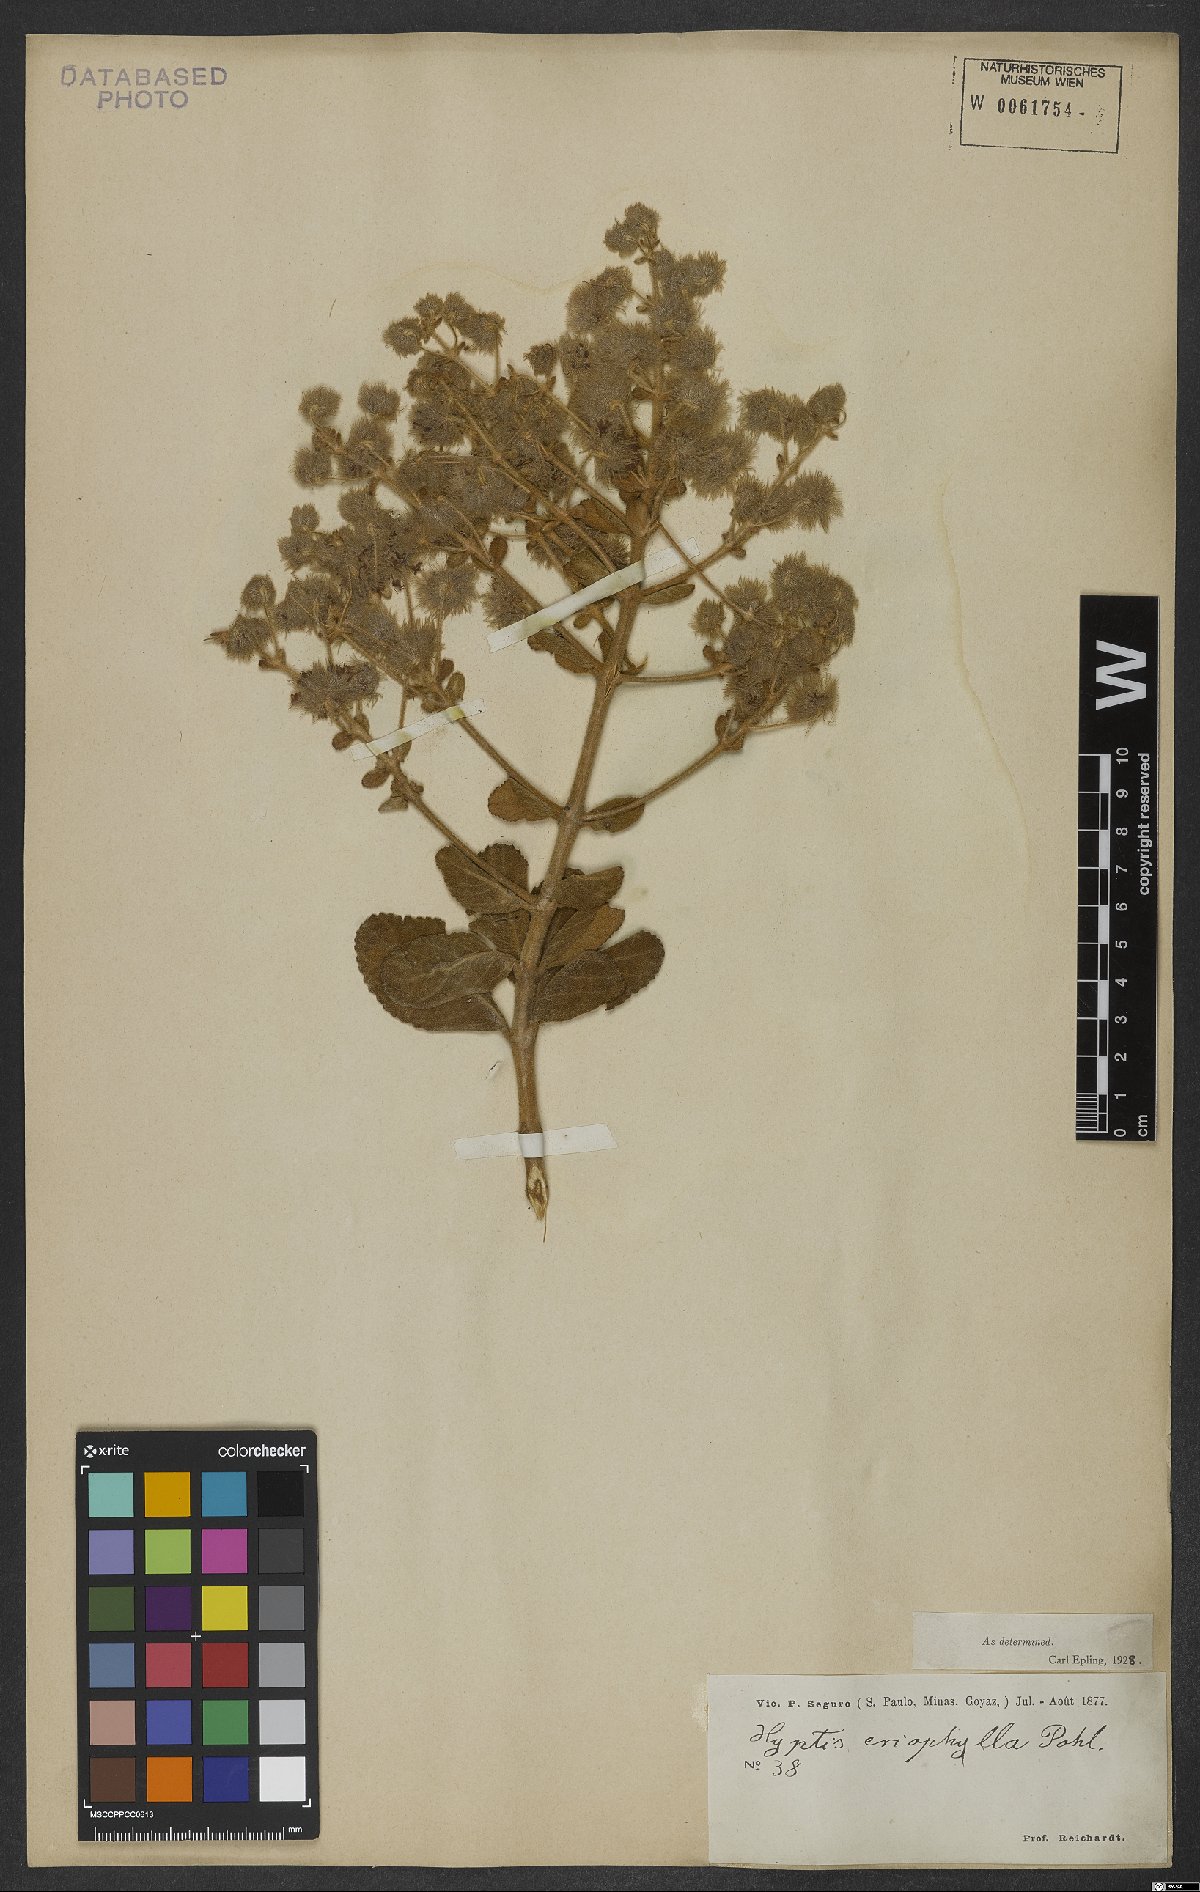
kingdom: Plantae
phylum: Tracheophyta
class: Magnoliopsida
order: Lamiales
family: Lamiaceae
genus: Medusantha
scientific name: Medusantha eriophylla
